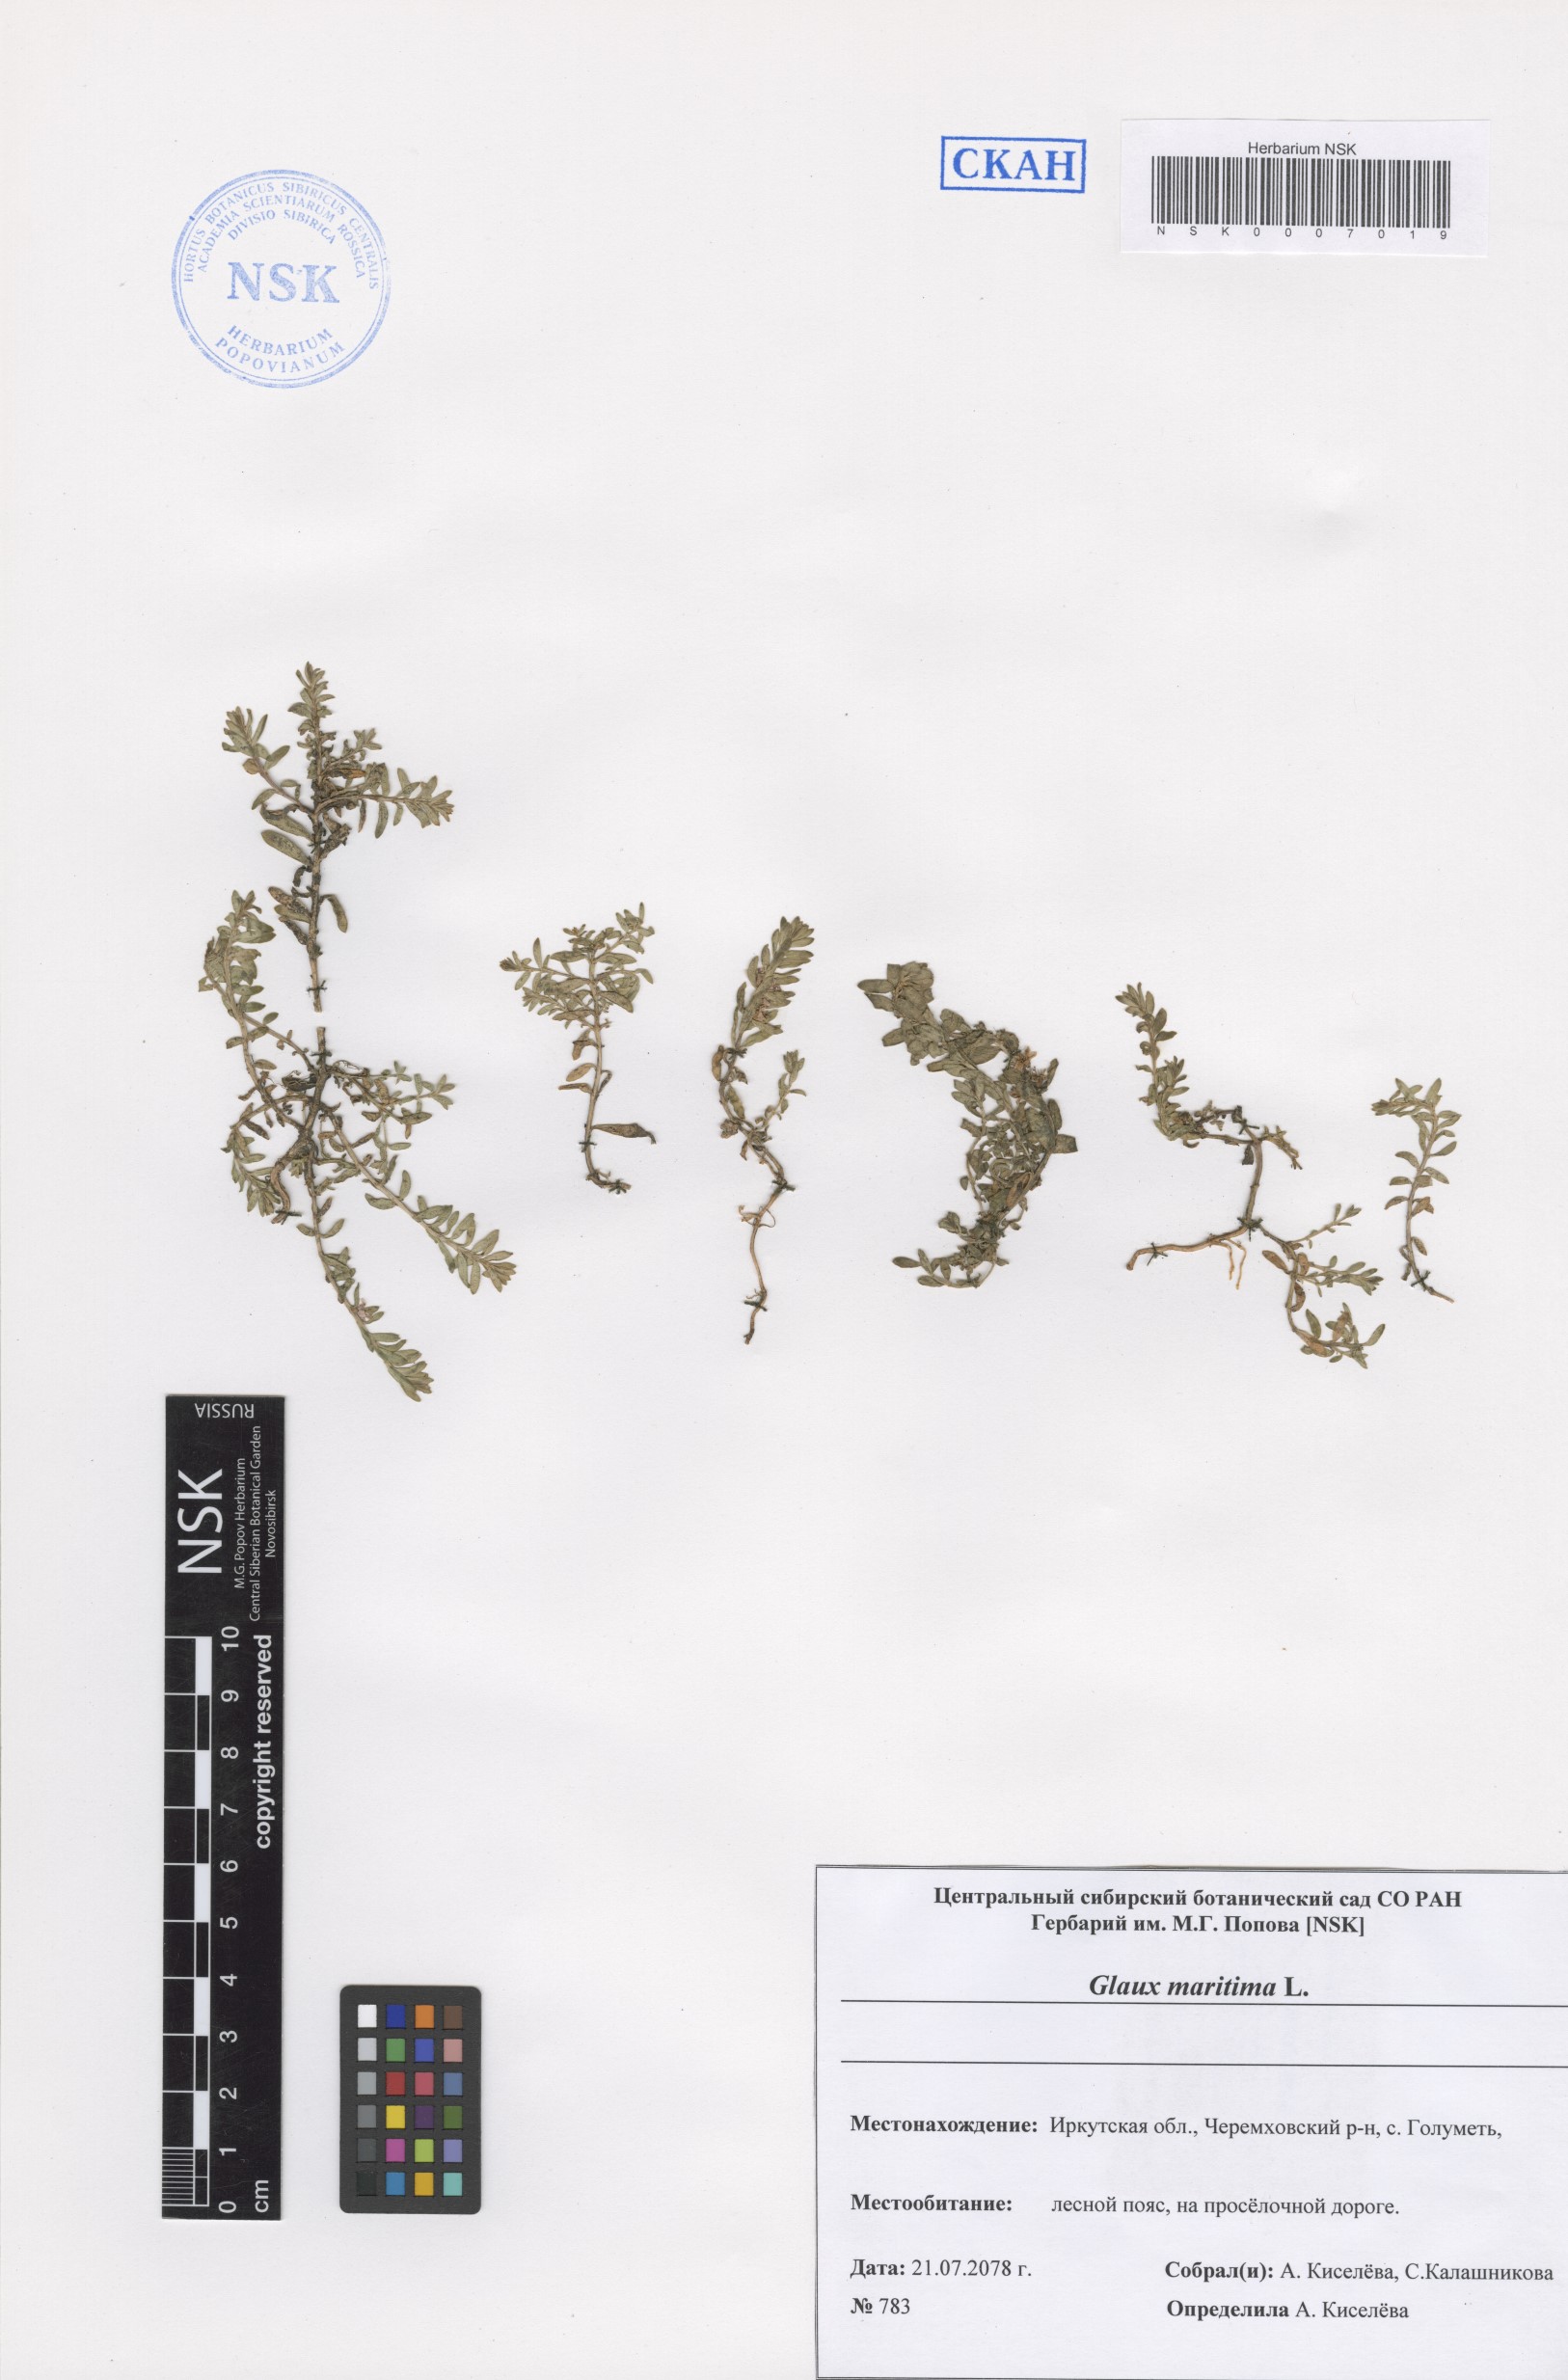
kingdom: Plantae
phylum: Tracheophyta
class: Magnoliopsida
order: Ericales
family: Primulaceae
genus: Lysimachia
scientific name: Lysimachia maritima
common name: Sea milkwort
